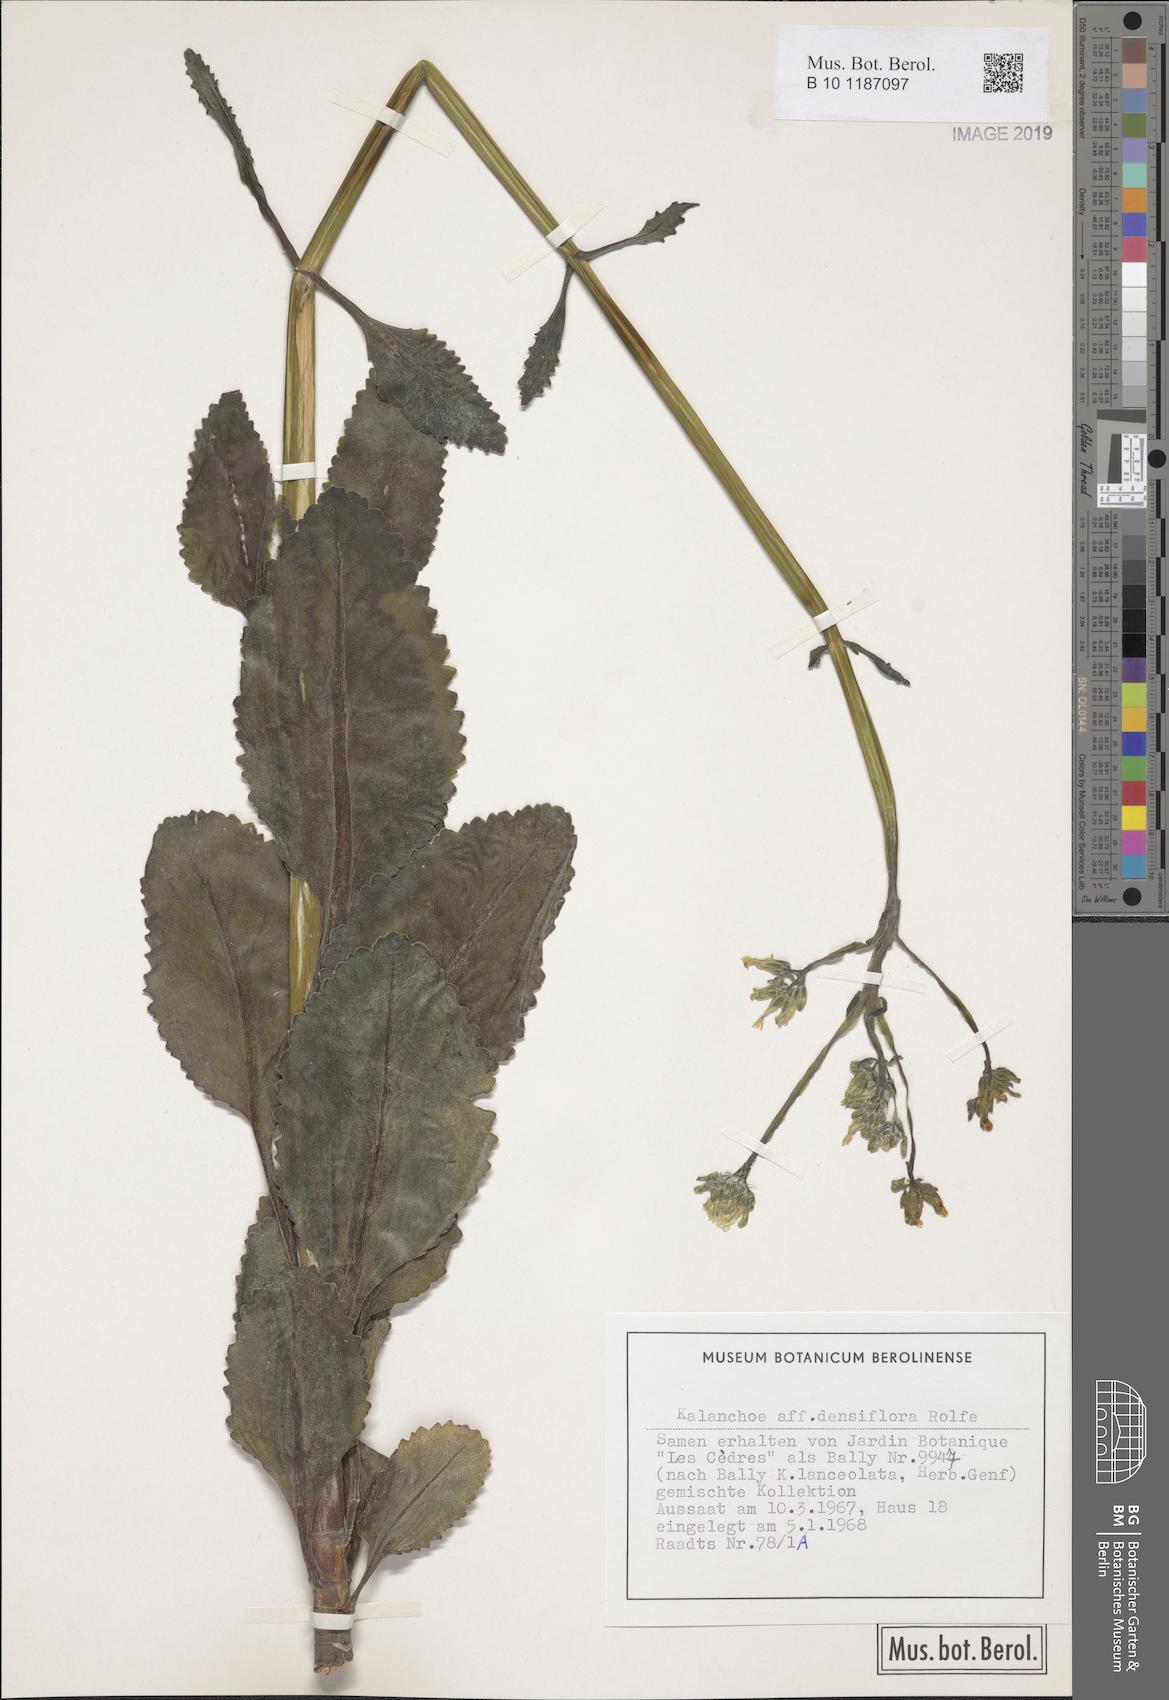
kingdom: Plantae
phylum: Tracheophyta
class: Magnoliopsida
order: Saxifragales
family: Crassulaceae
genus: Kalanchoe
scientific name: Kalanchoe densiflora
